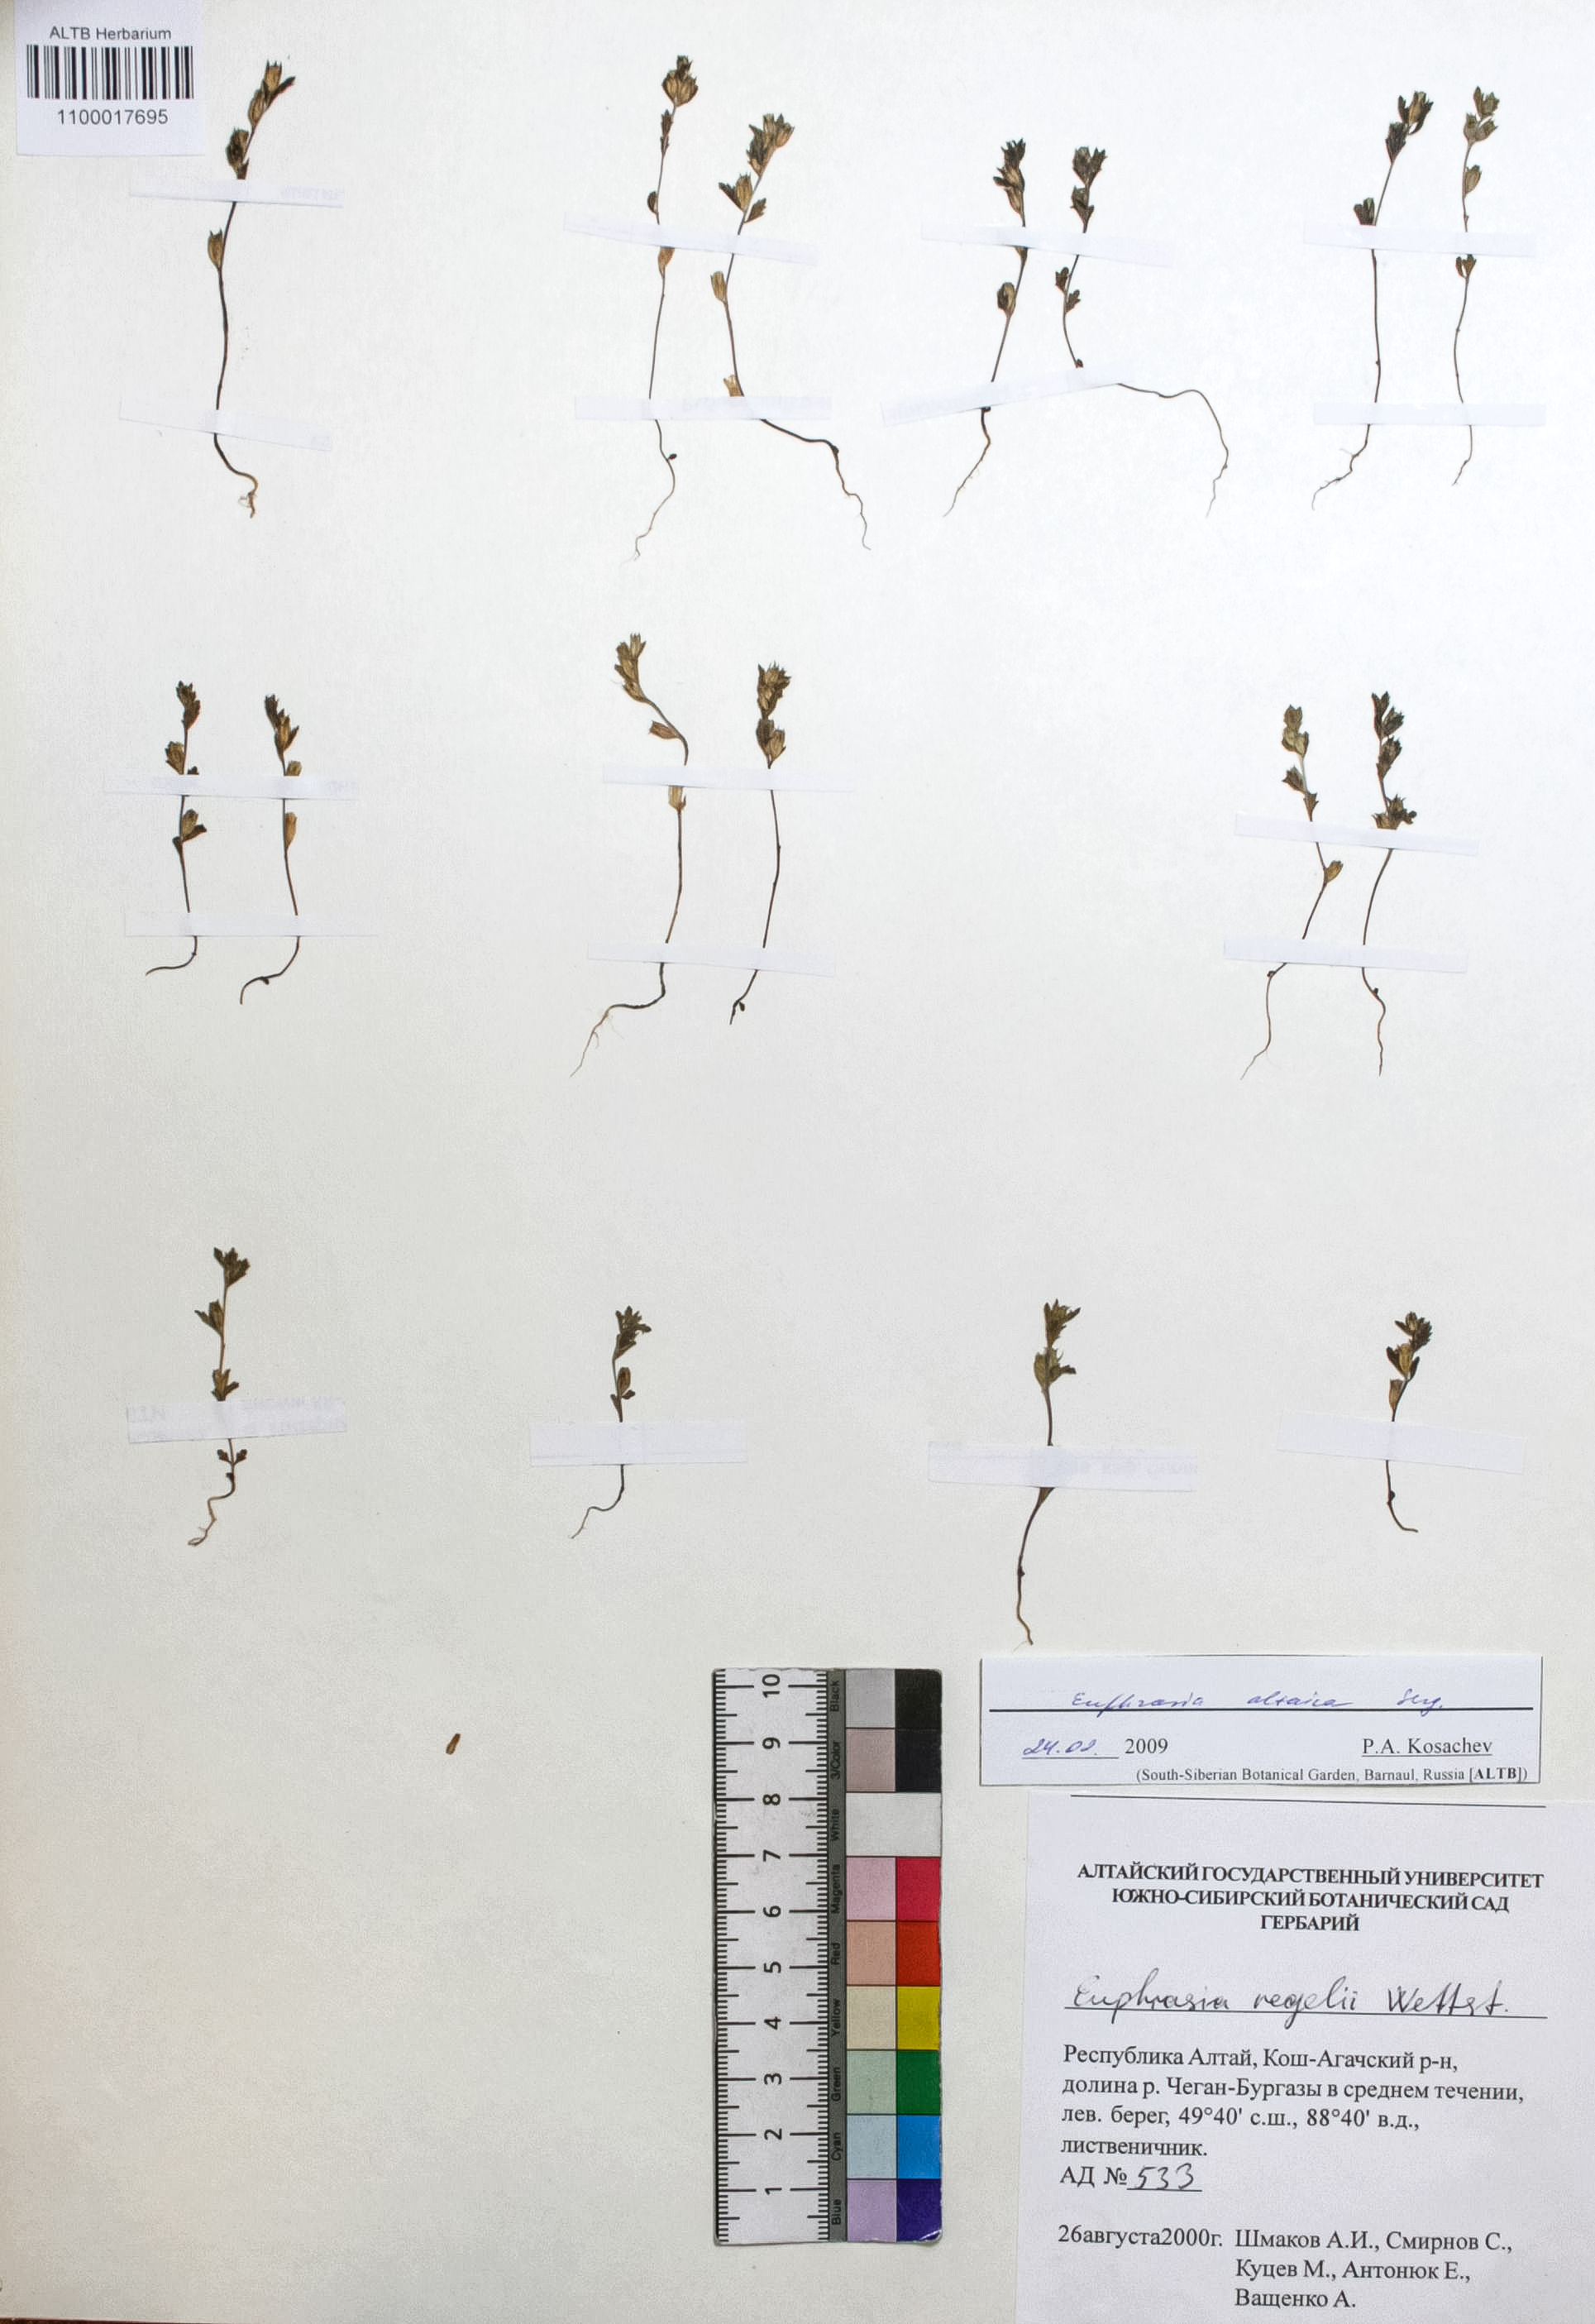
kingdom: Plantae
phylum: Tracheophyta
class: Magnoliopsida
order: Lamiales
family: Orobanchaceae
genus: Euphrasia
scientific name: Euphrasia altaica
